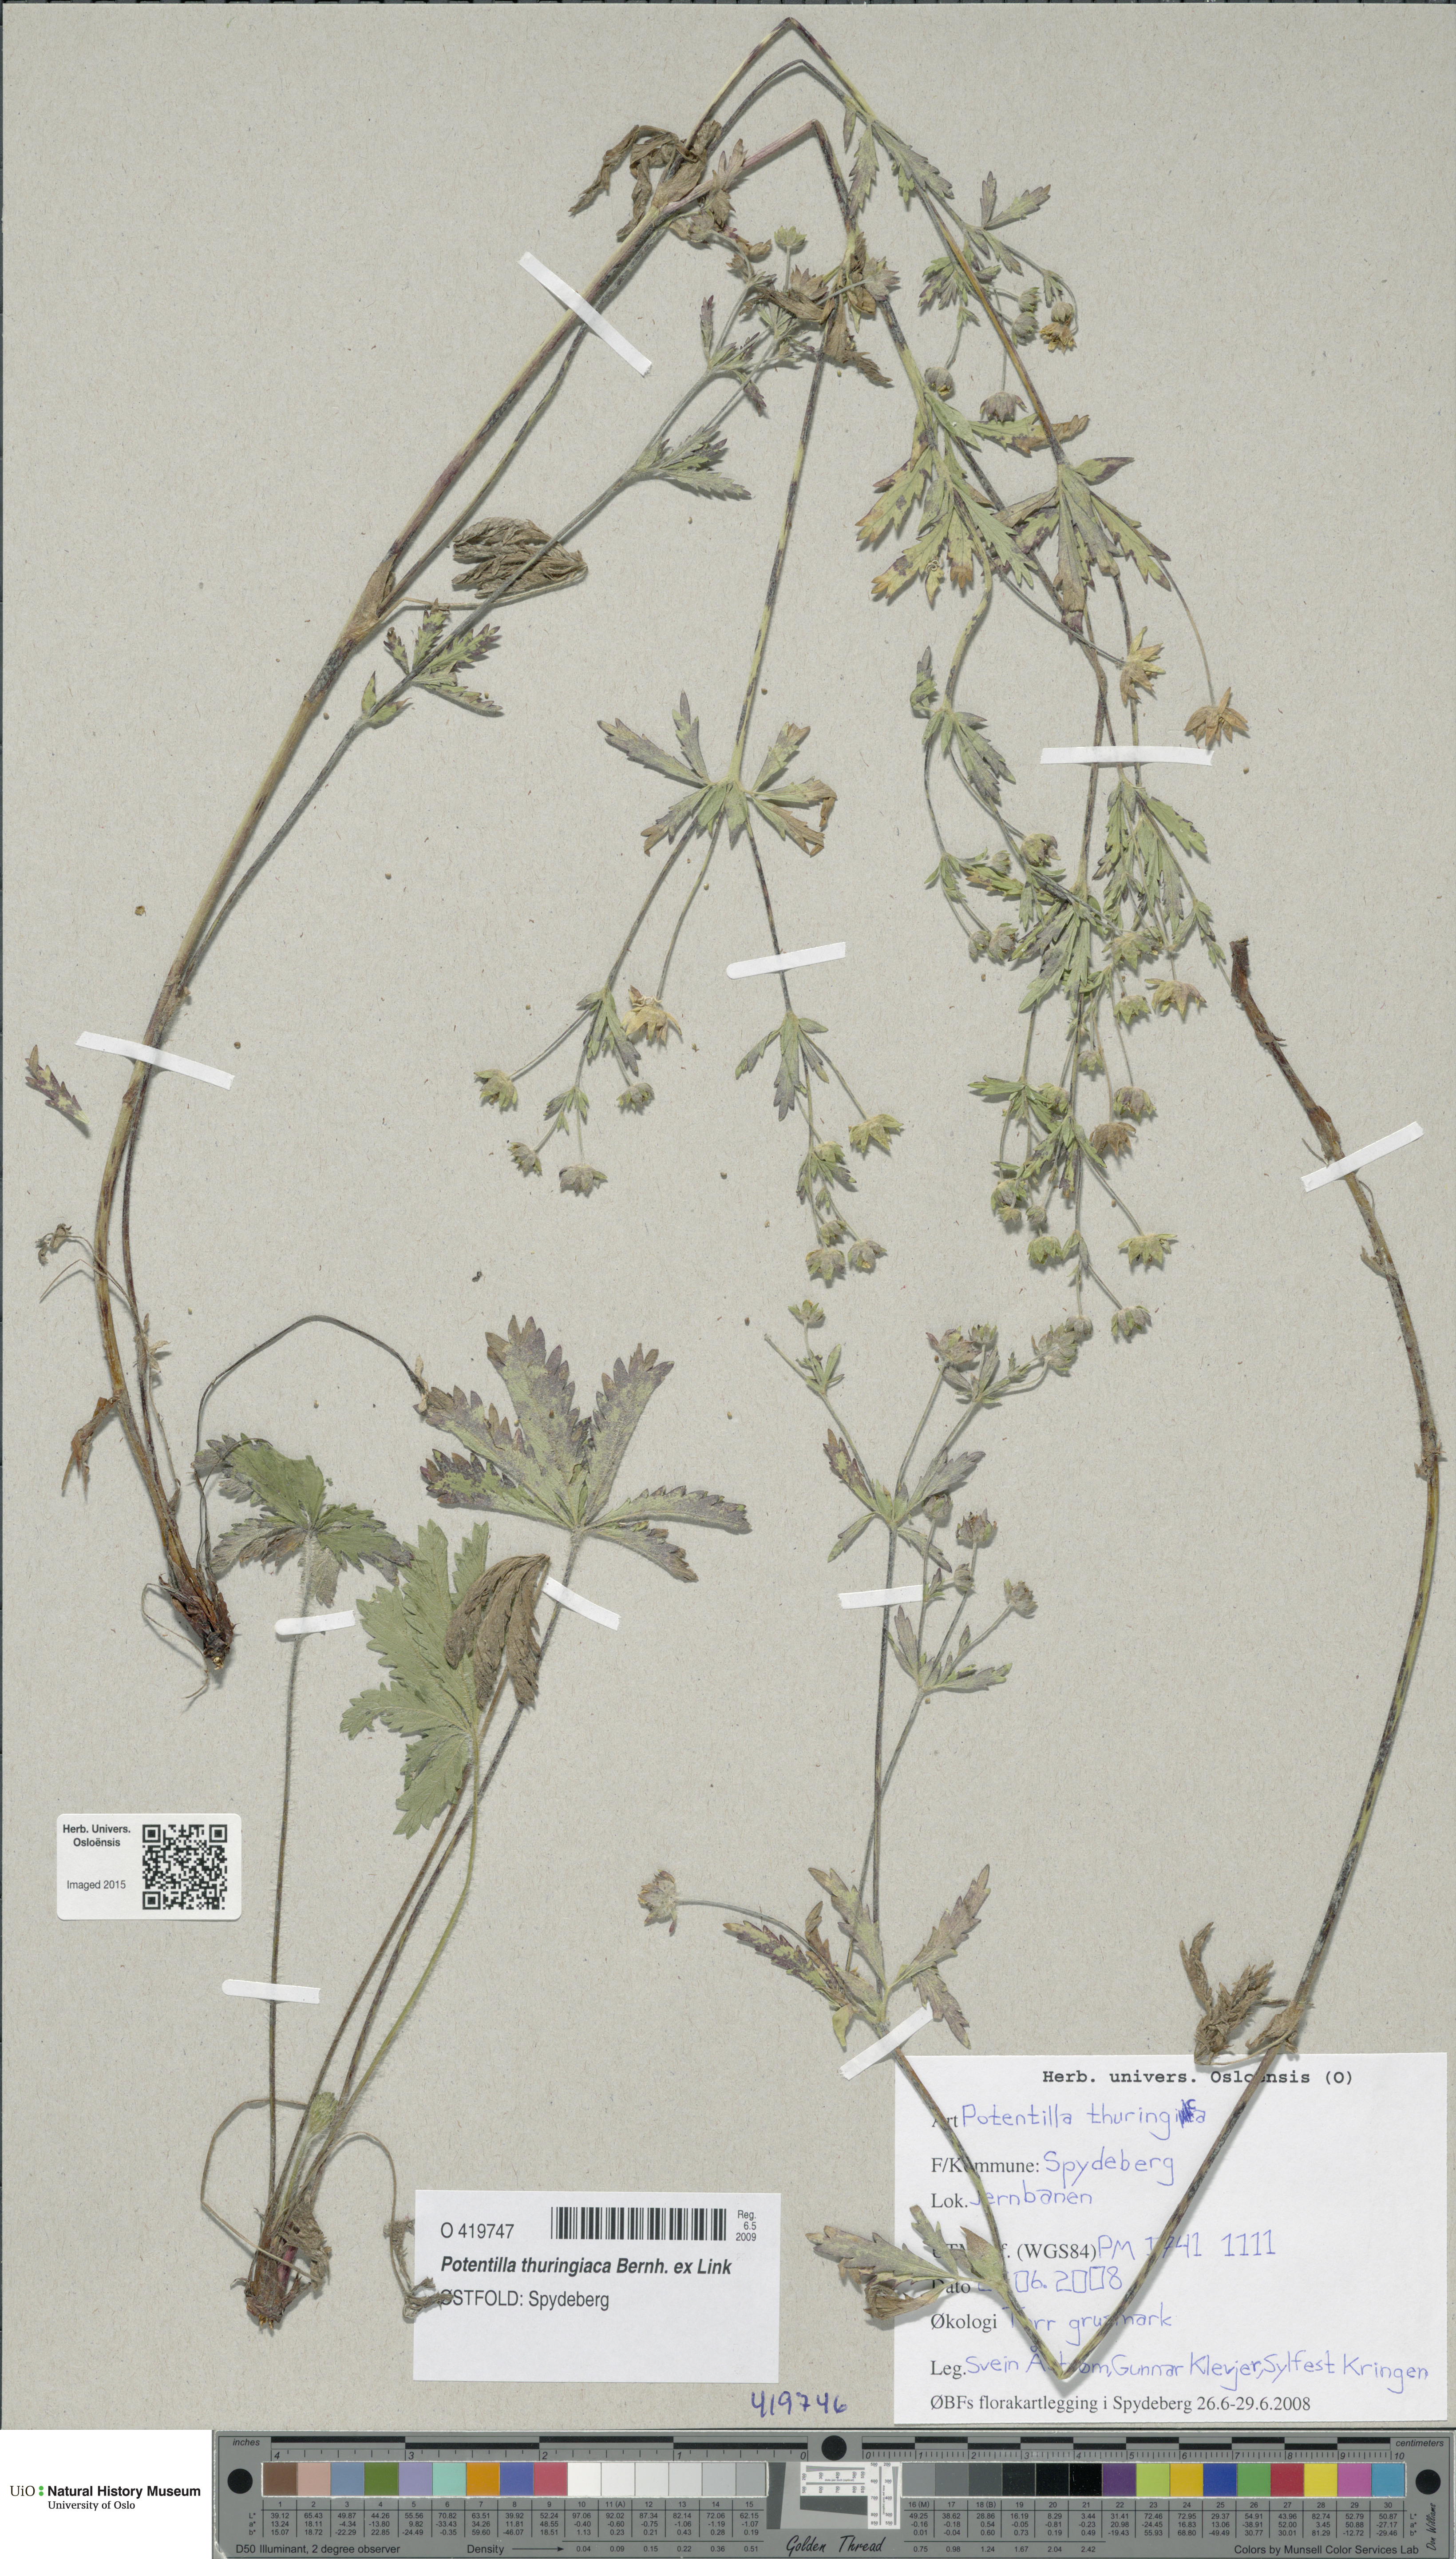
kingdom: Plantae
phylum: Tracheophyta
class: Magnoliopsida
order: Rosales
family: Rosaceae
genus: Potentilla
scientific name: Potentilla thuringiaca
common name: European cinquefoil
